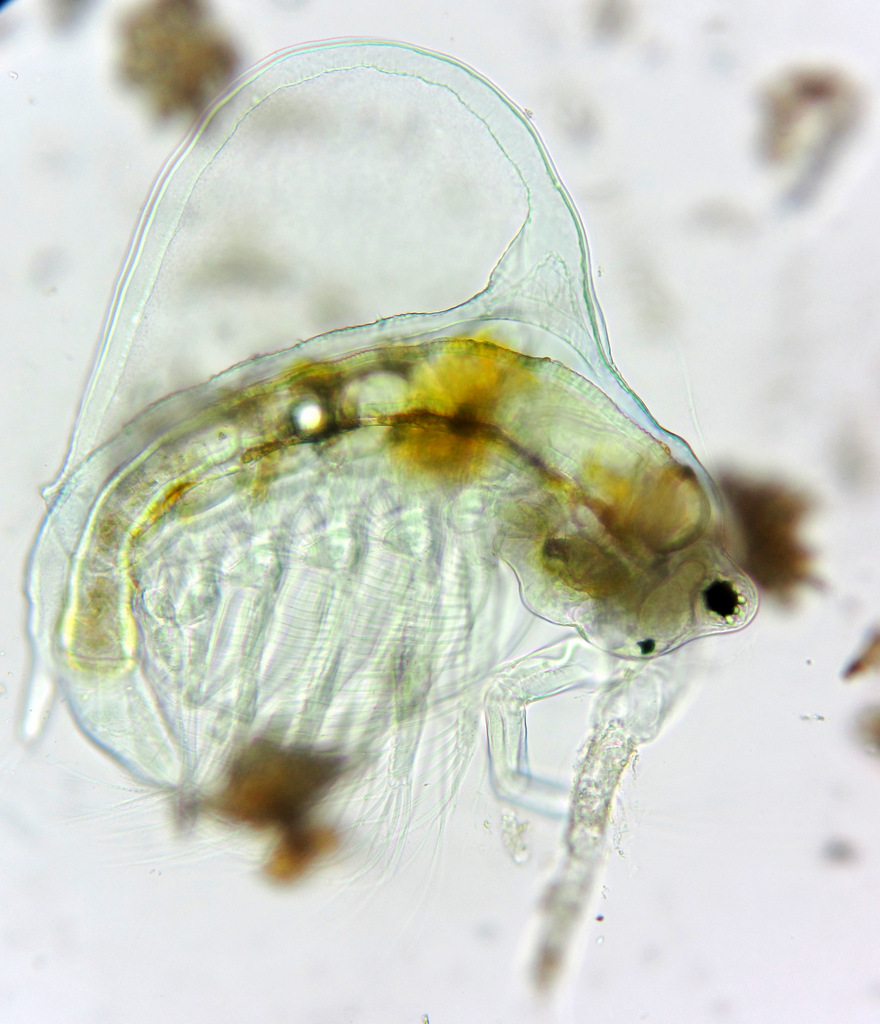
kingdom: Animalia
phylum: Arthropoda
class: Branchiopoda
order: Diplostraca
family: Holopediidae
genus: Holopedium
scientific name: Holopedium gibberum
